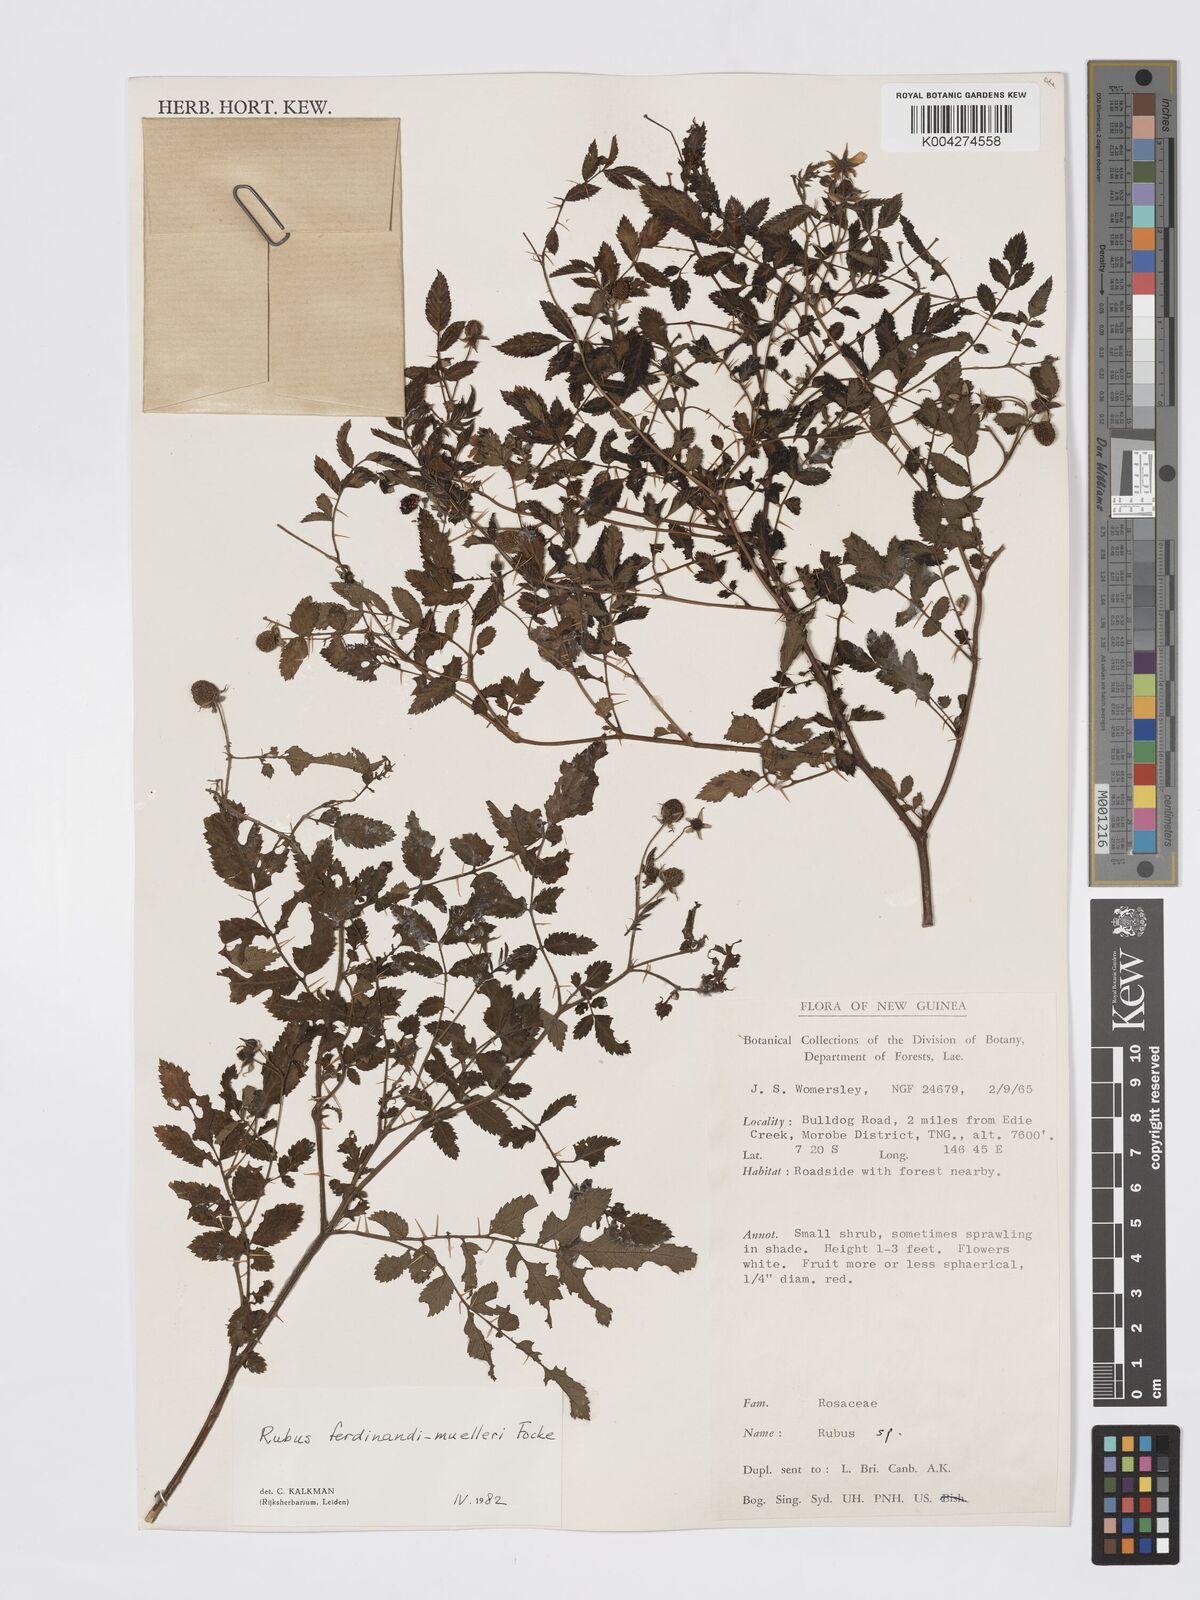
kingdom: Plantae
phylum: Tracheophyta
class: Magnoliopsida
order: Rosales
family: Rosaceae
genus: Rubus
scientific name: Rubus ferdinandimuelleri
